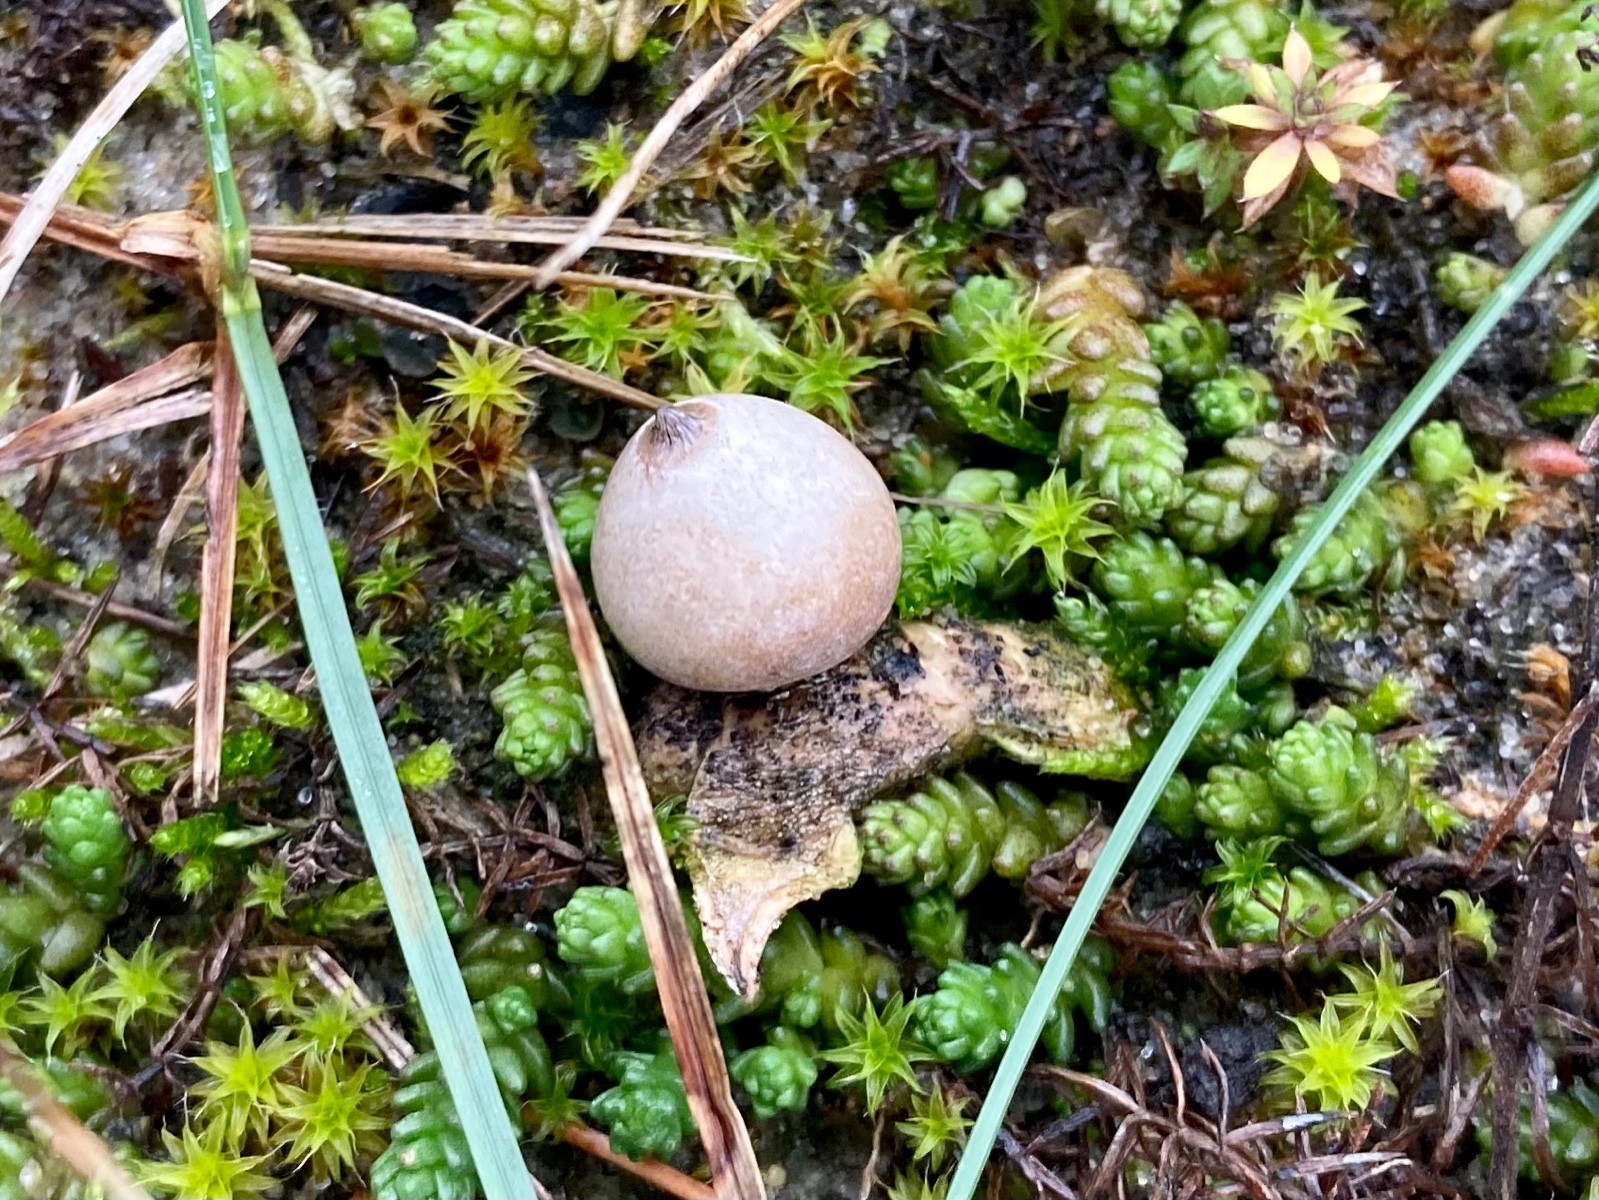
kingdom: Fungi
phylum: Basidiomycota
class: Agaricomycetes
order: Geastrales
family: Geastraceae
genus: Geastrum
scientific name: Geastrum minimum
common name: liden stjernebold
